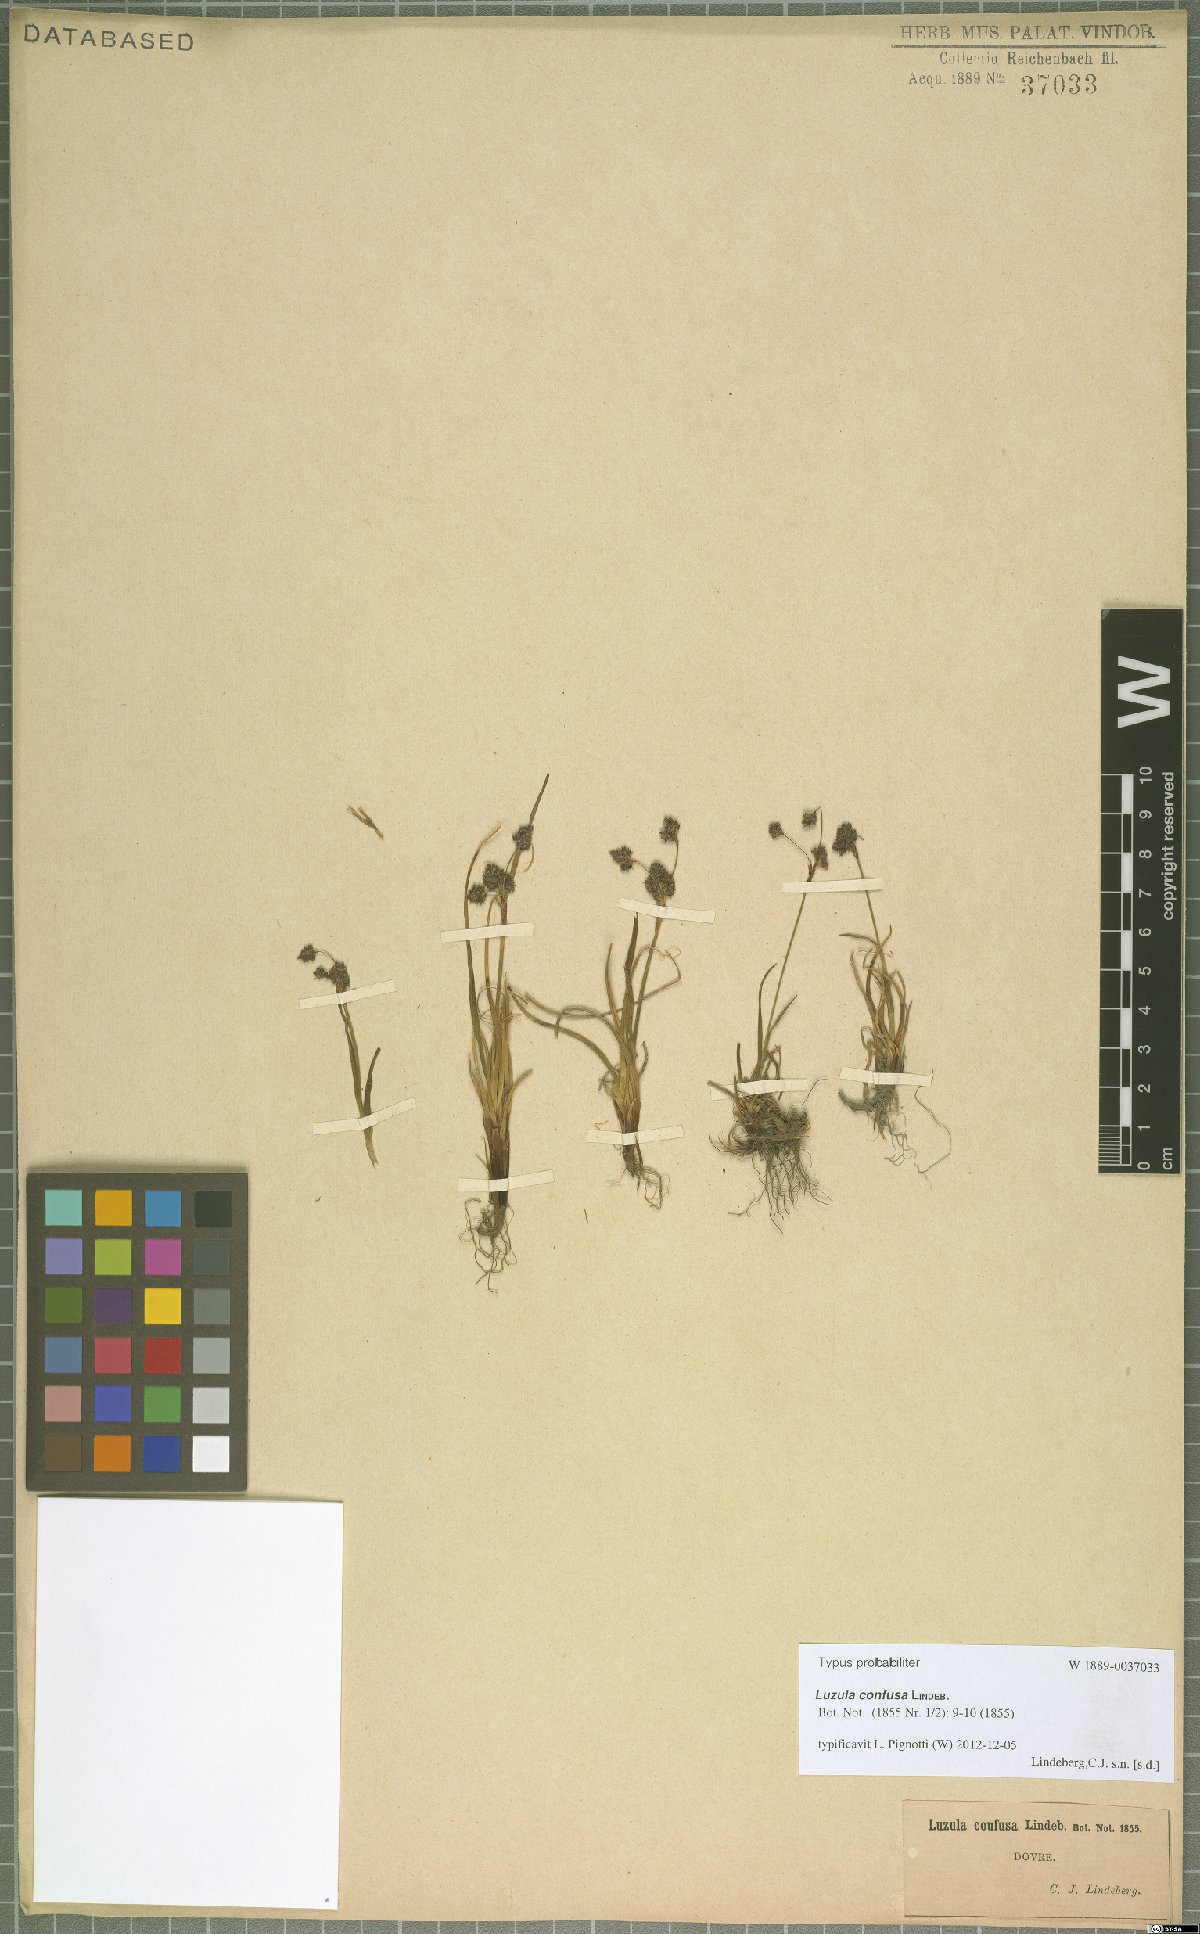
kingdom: Plantae
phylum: Tracheophyta
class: Liliopsida
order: Poales
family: Juncaceae
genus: Luzula
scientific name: Luzula confusa
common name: Northern wood rush
